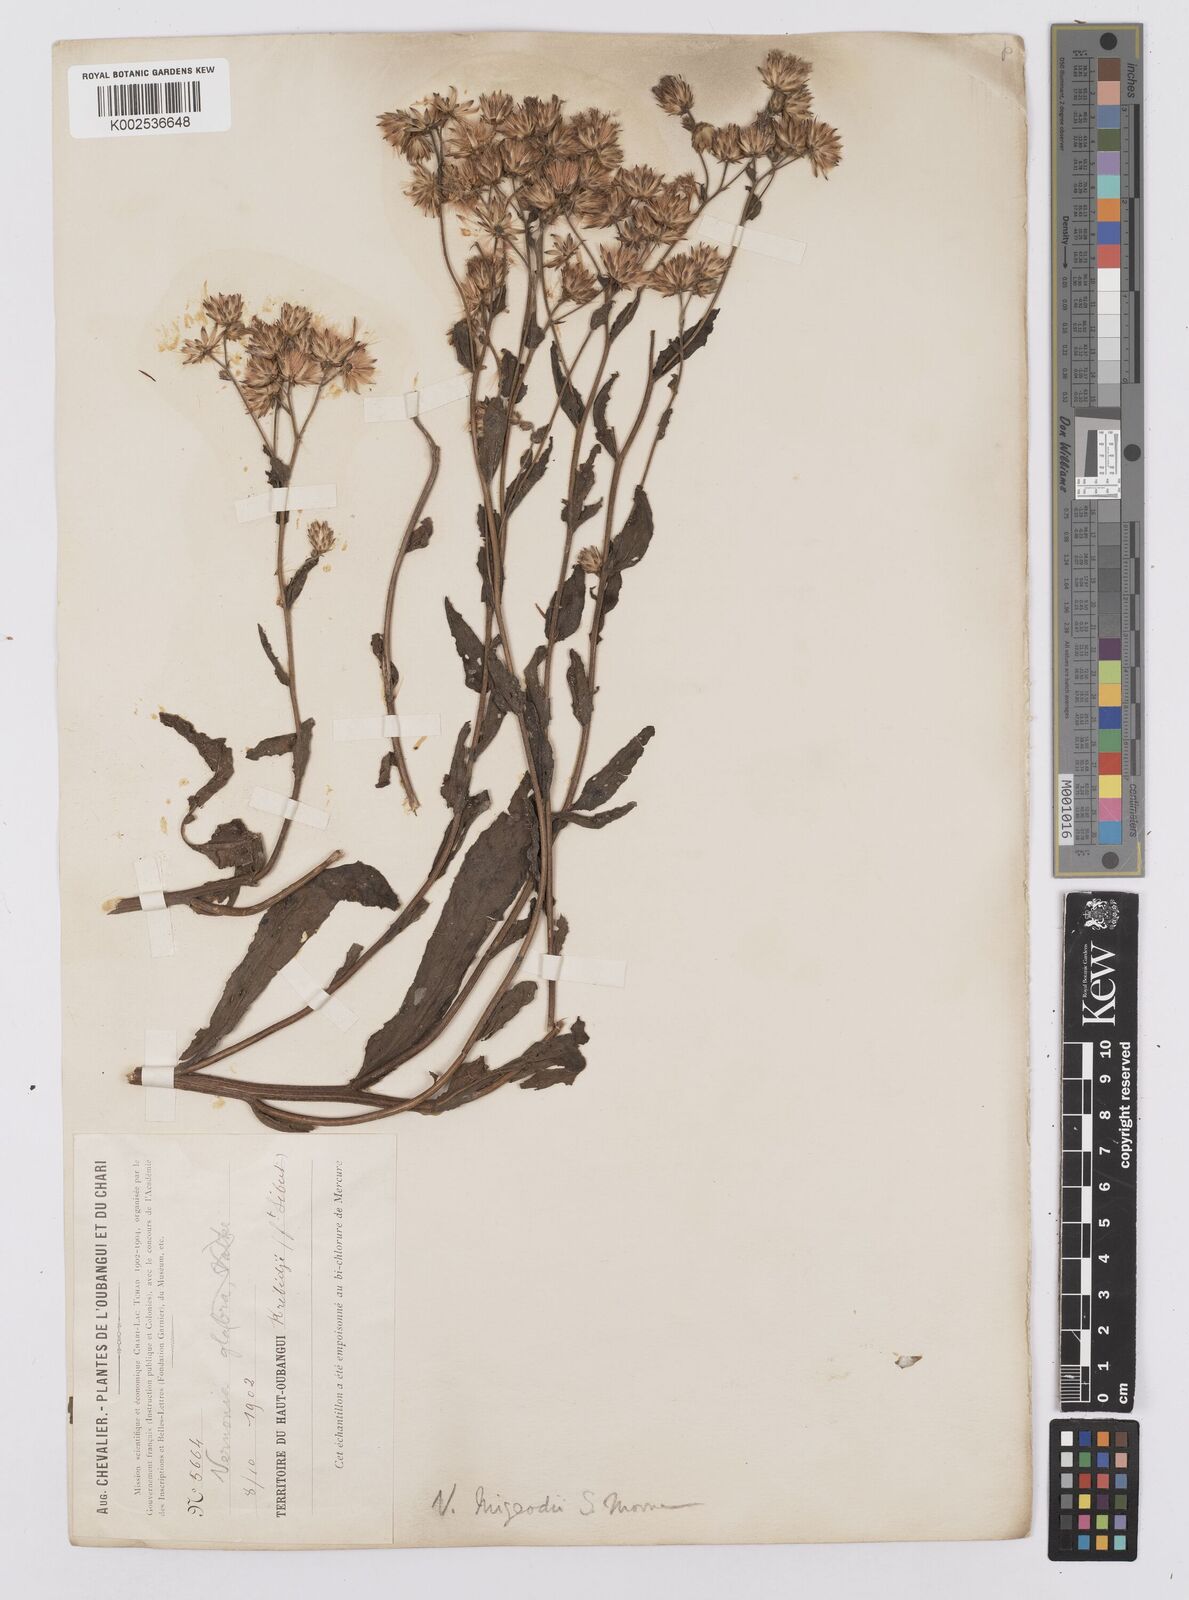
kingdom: Plantae
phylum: Tracheophyta
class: Magnoliopsida
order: Asterales
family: Asteraceae
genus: Vernoniastrum
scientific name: Vernoniastrum migeodii
